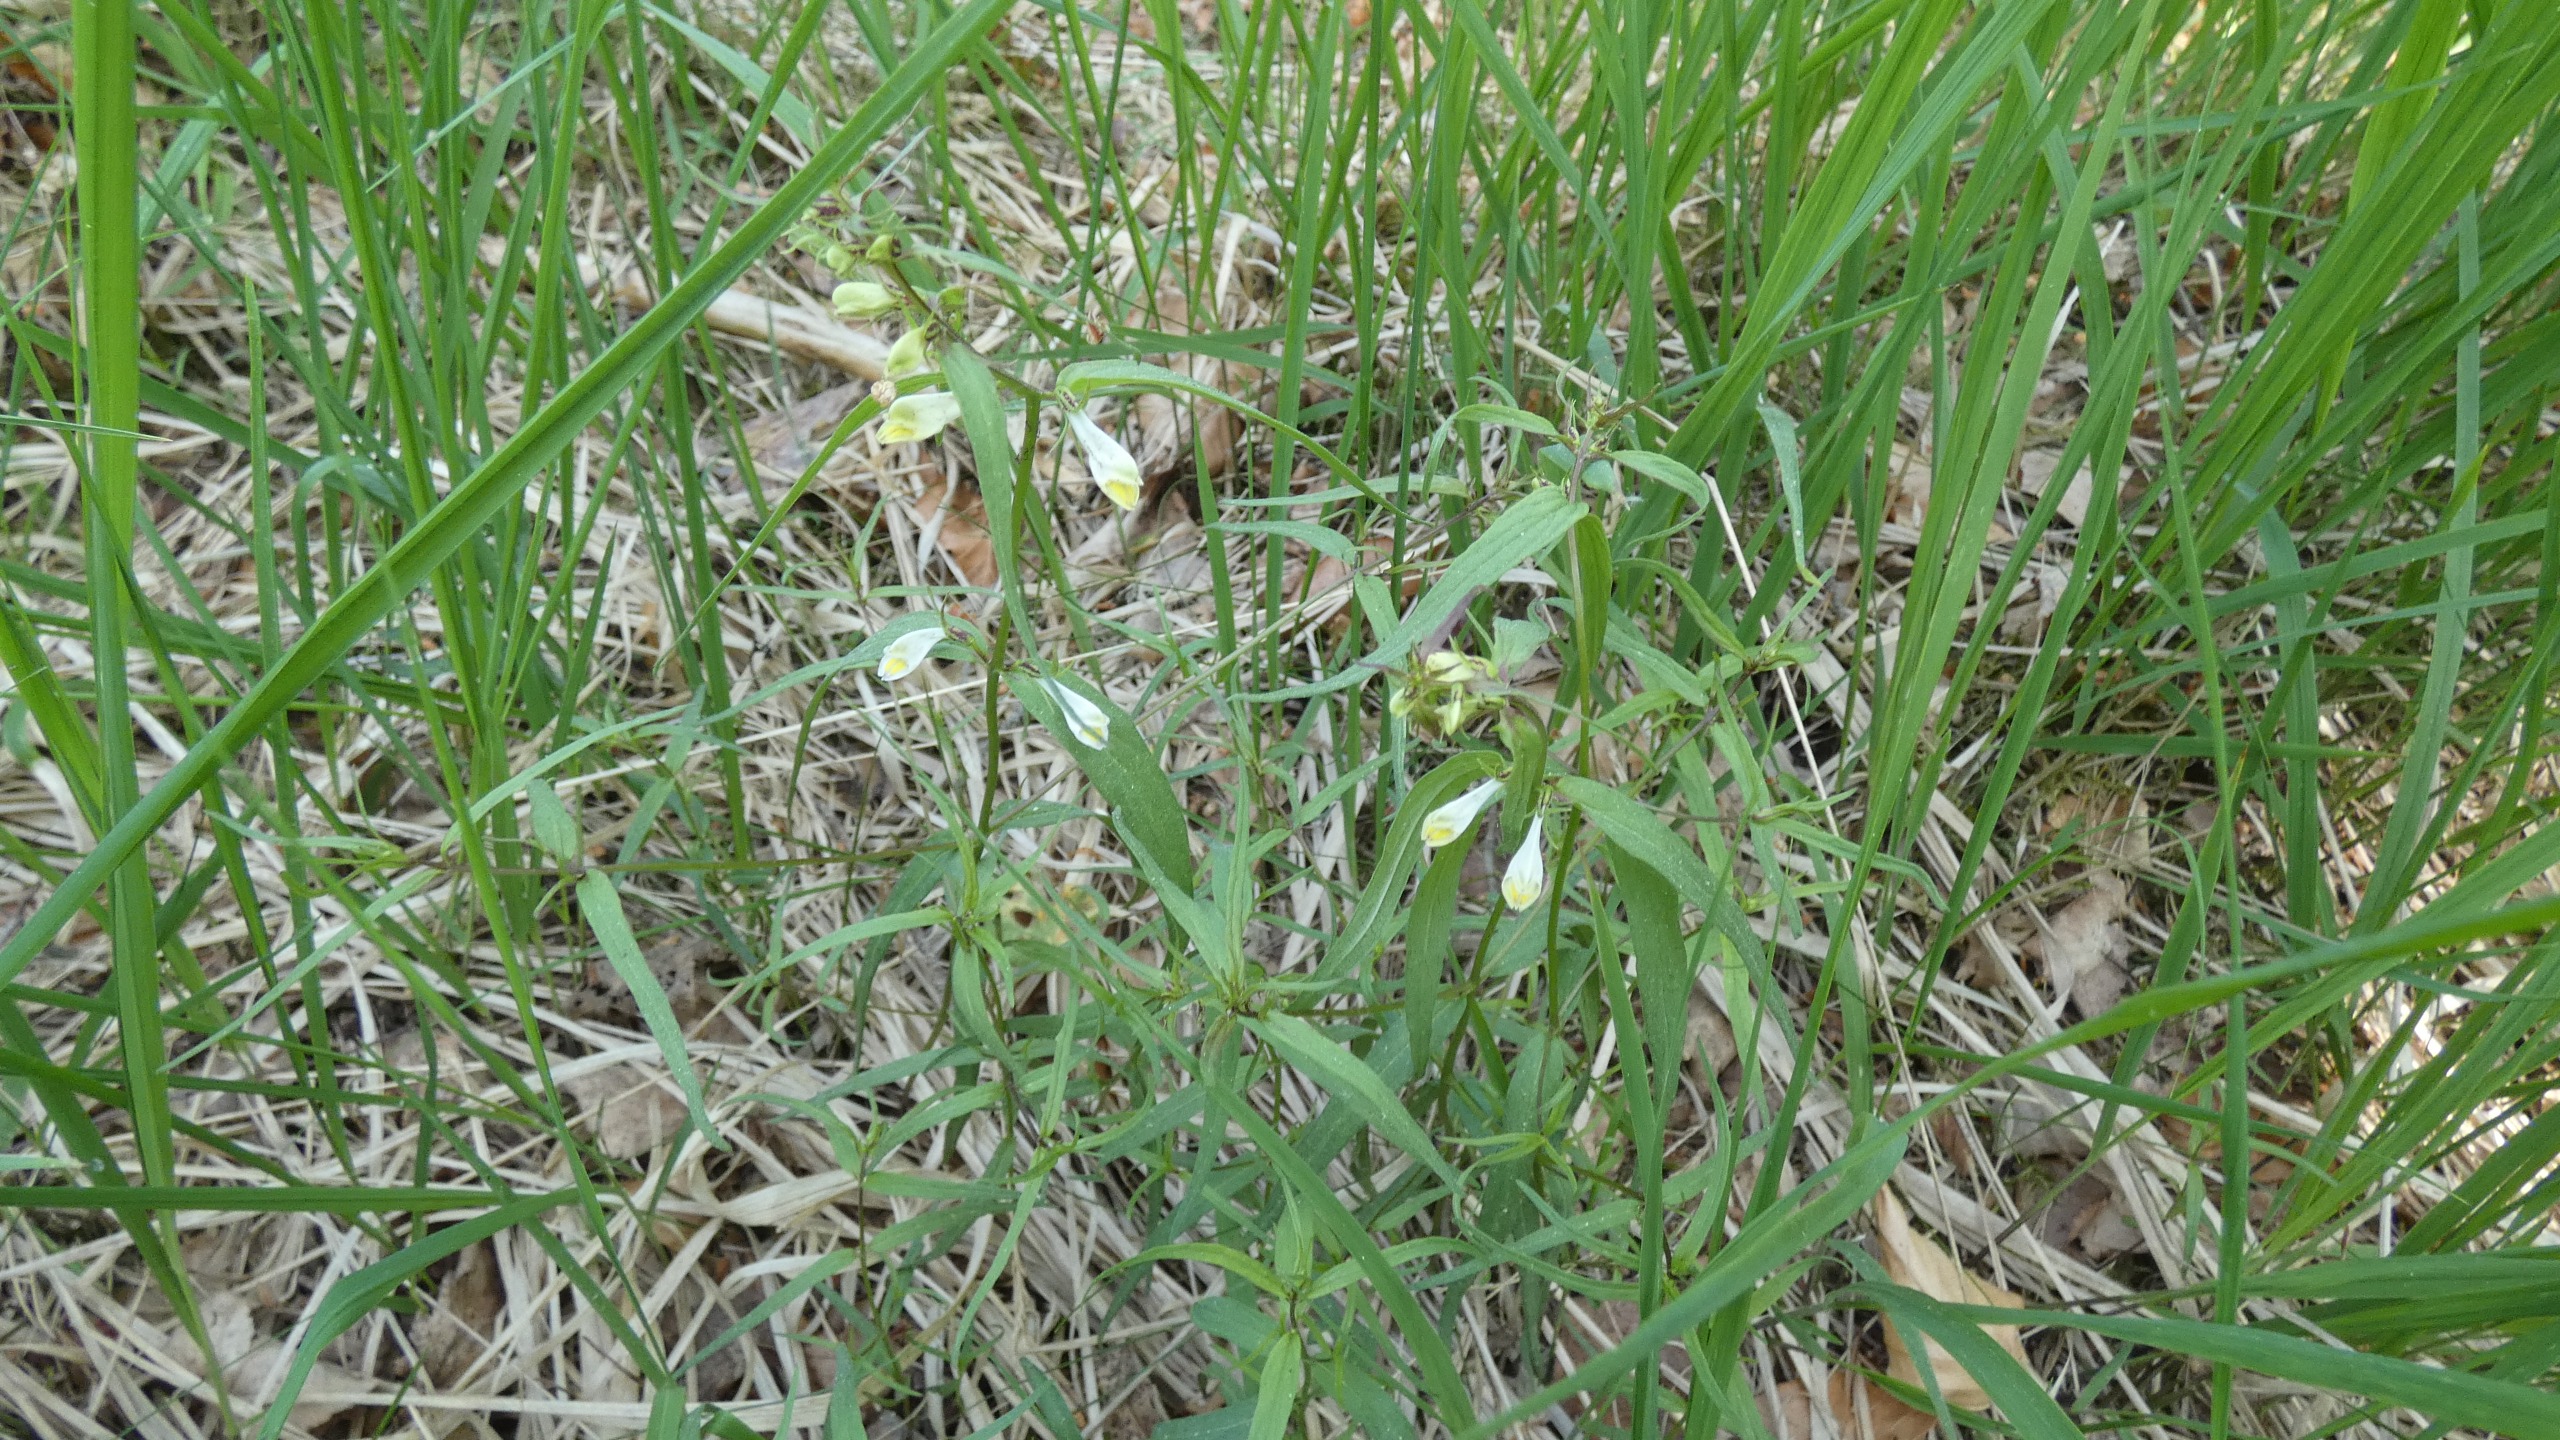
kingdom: Plantae
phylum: Tracheophyta
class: Magnoliopsida
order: Lamiales
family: Orobanchaceae
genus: Melampyrum
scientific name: Melampyrum pratense
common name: Almindelig kohvede
